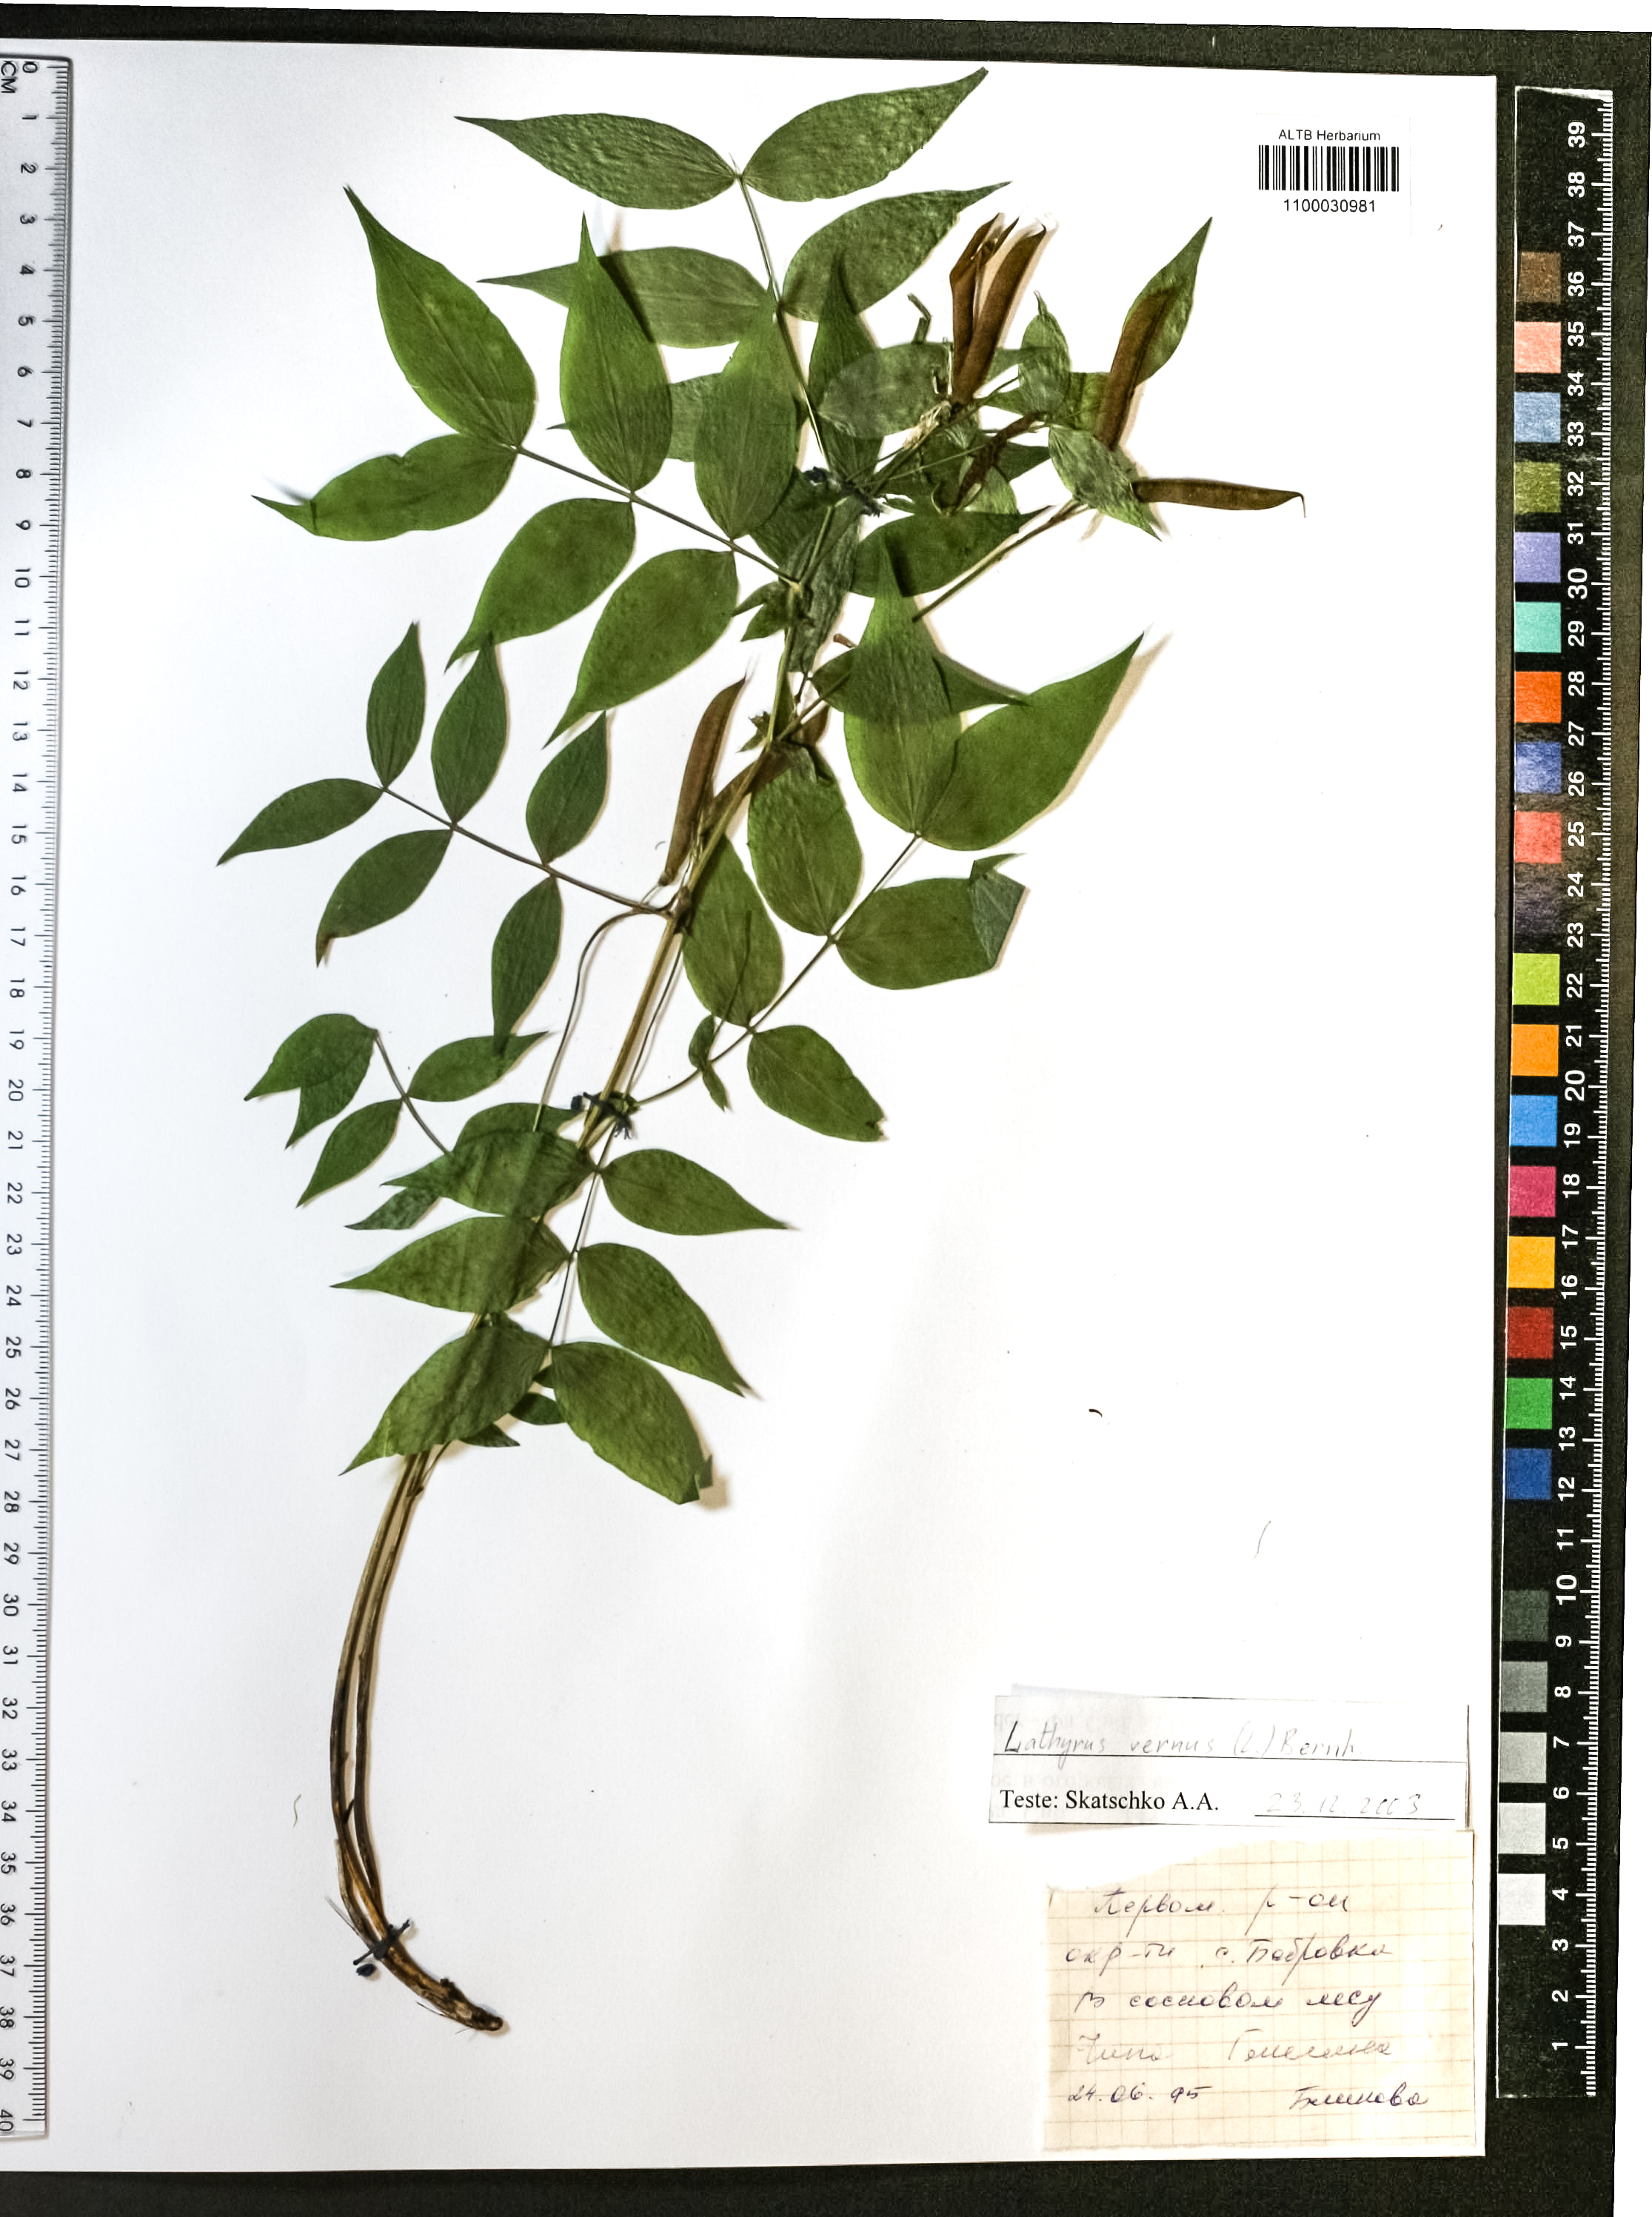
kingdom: Plantae
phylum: Tracheophyta
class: Magnoliopsida
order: Fabales
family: Fabaceae
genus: Lathyrus
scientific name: Lathyrus vernus
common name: Spring pea
